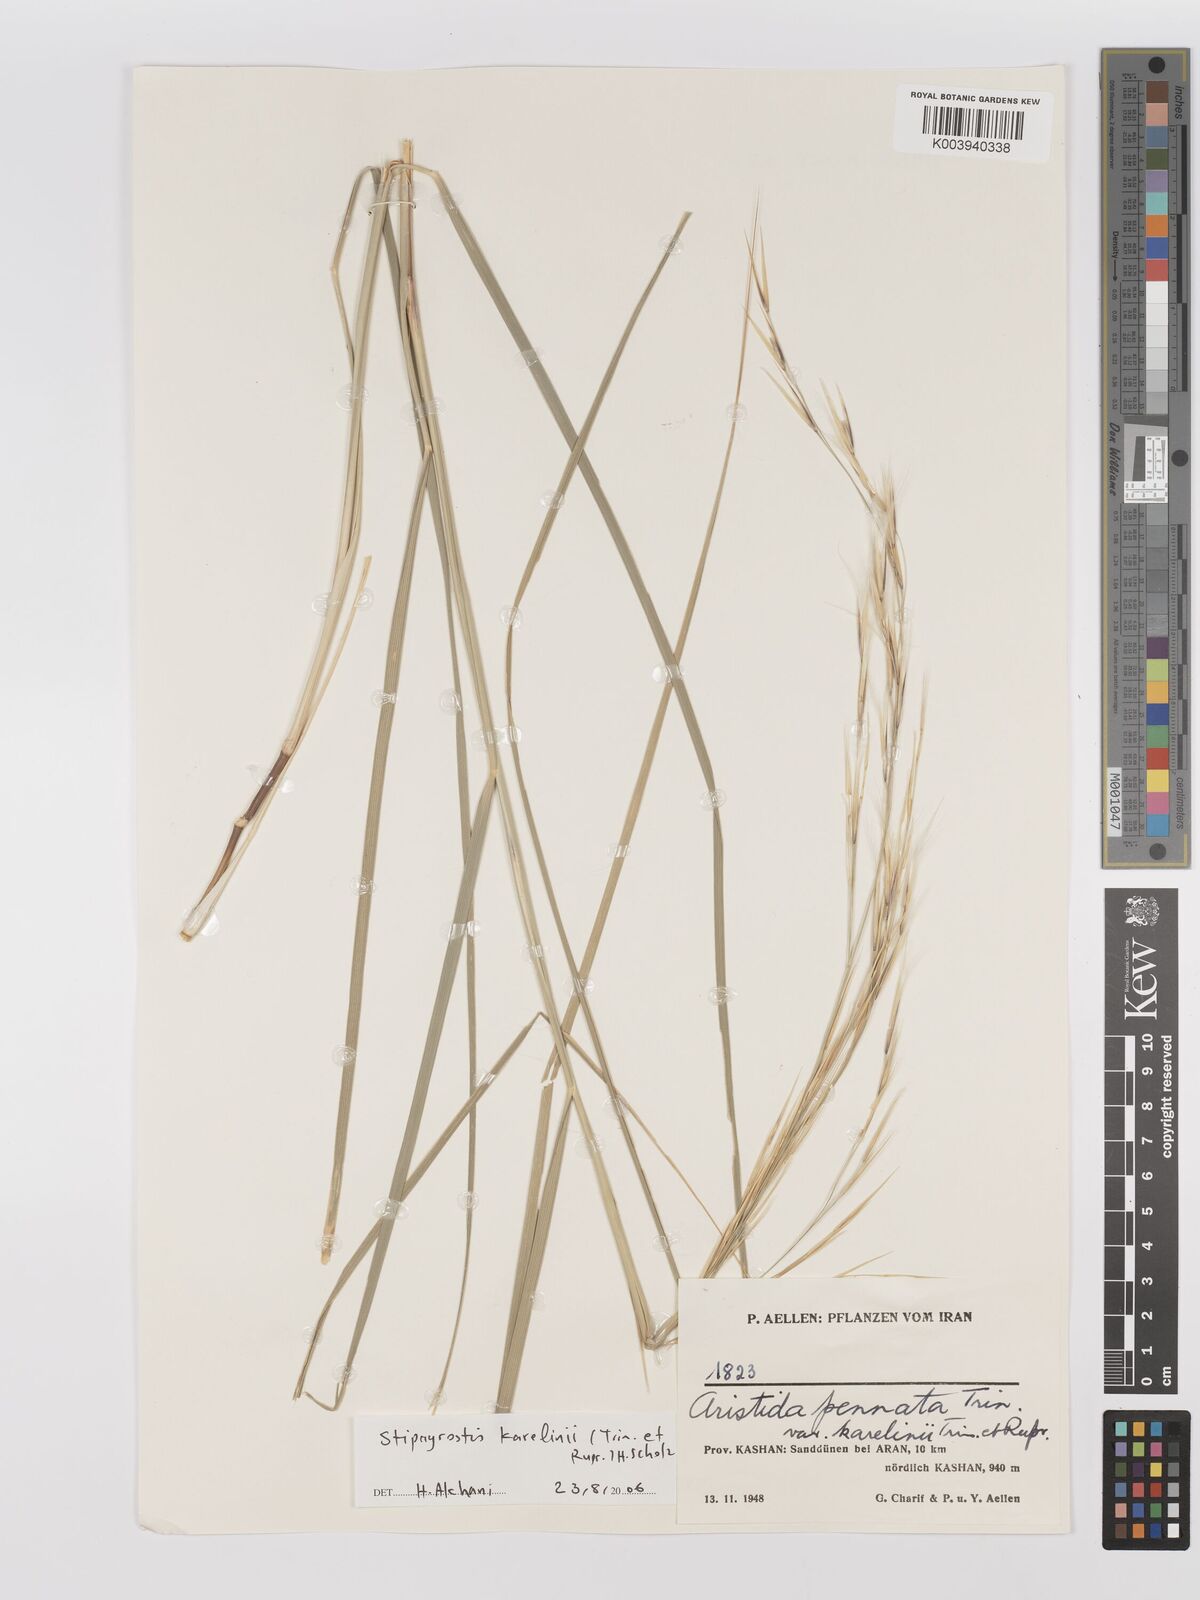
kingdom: Plantae
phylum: Tracheophyta
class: Liliopsida
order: Poales
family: Poaceae
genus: Stipagrostis
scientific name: Stipagrostis karelinii
